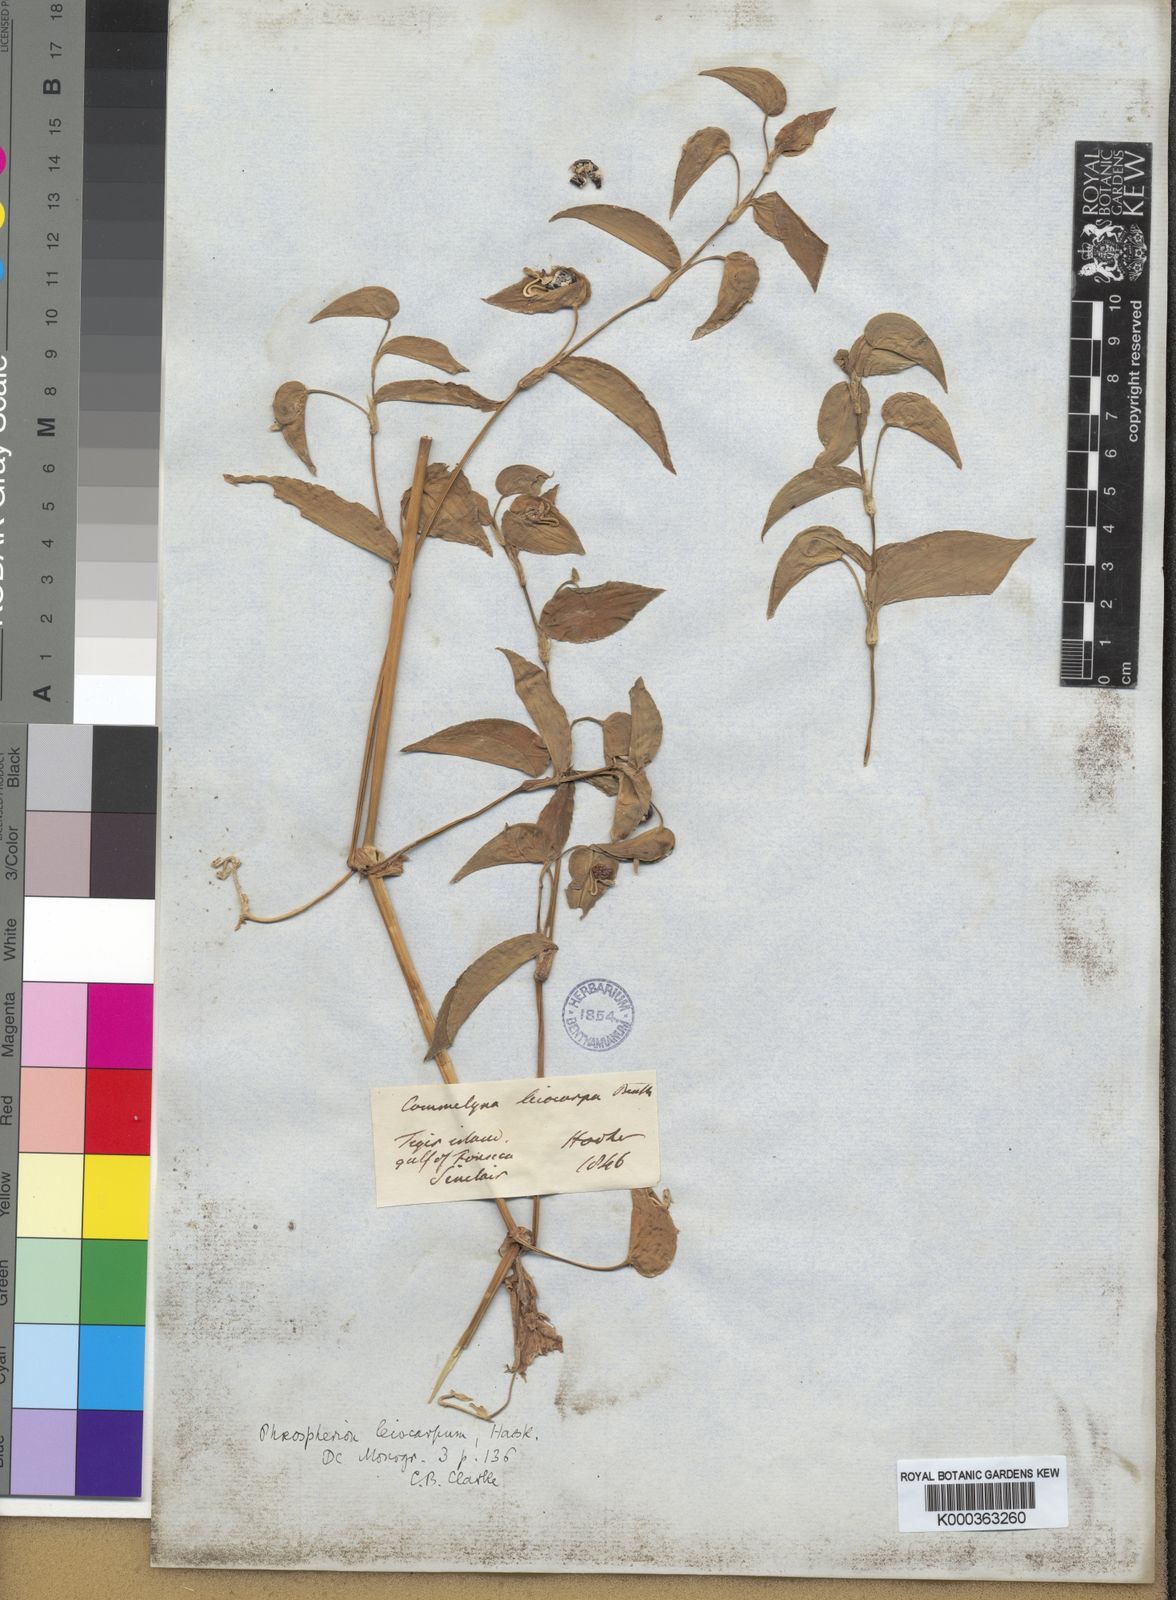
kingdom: Plantae
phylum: Tracheophyta
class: Liliopsida
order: Commelinales
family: Commelinaceae
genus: Commelina
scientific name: Commelina leiocarpa
